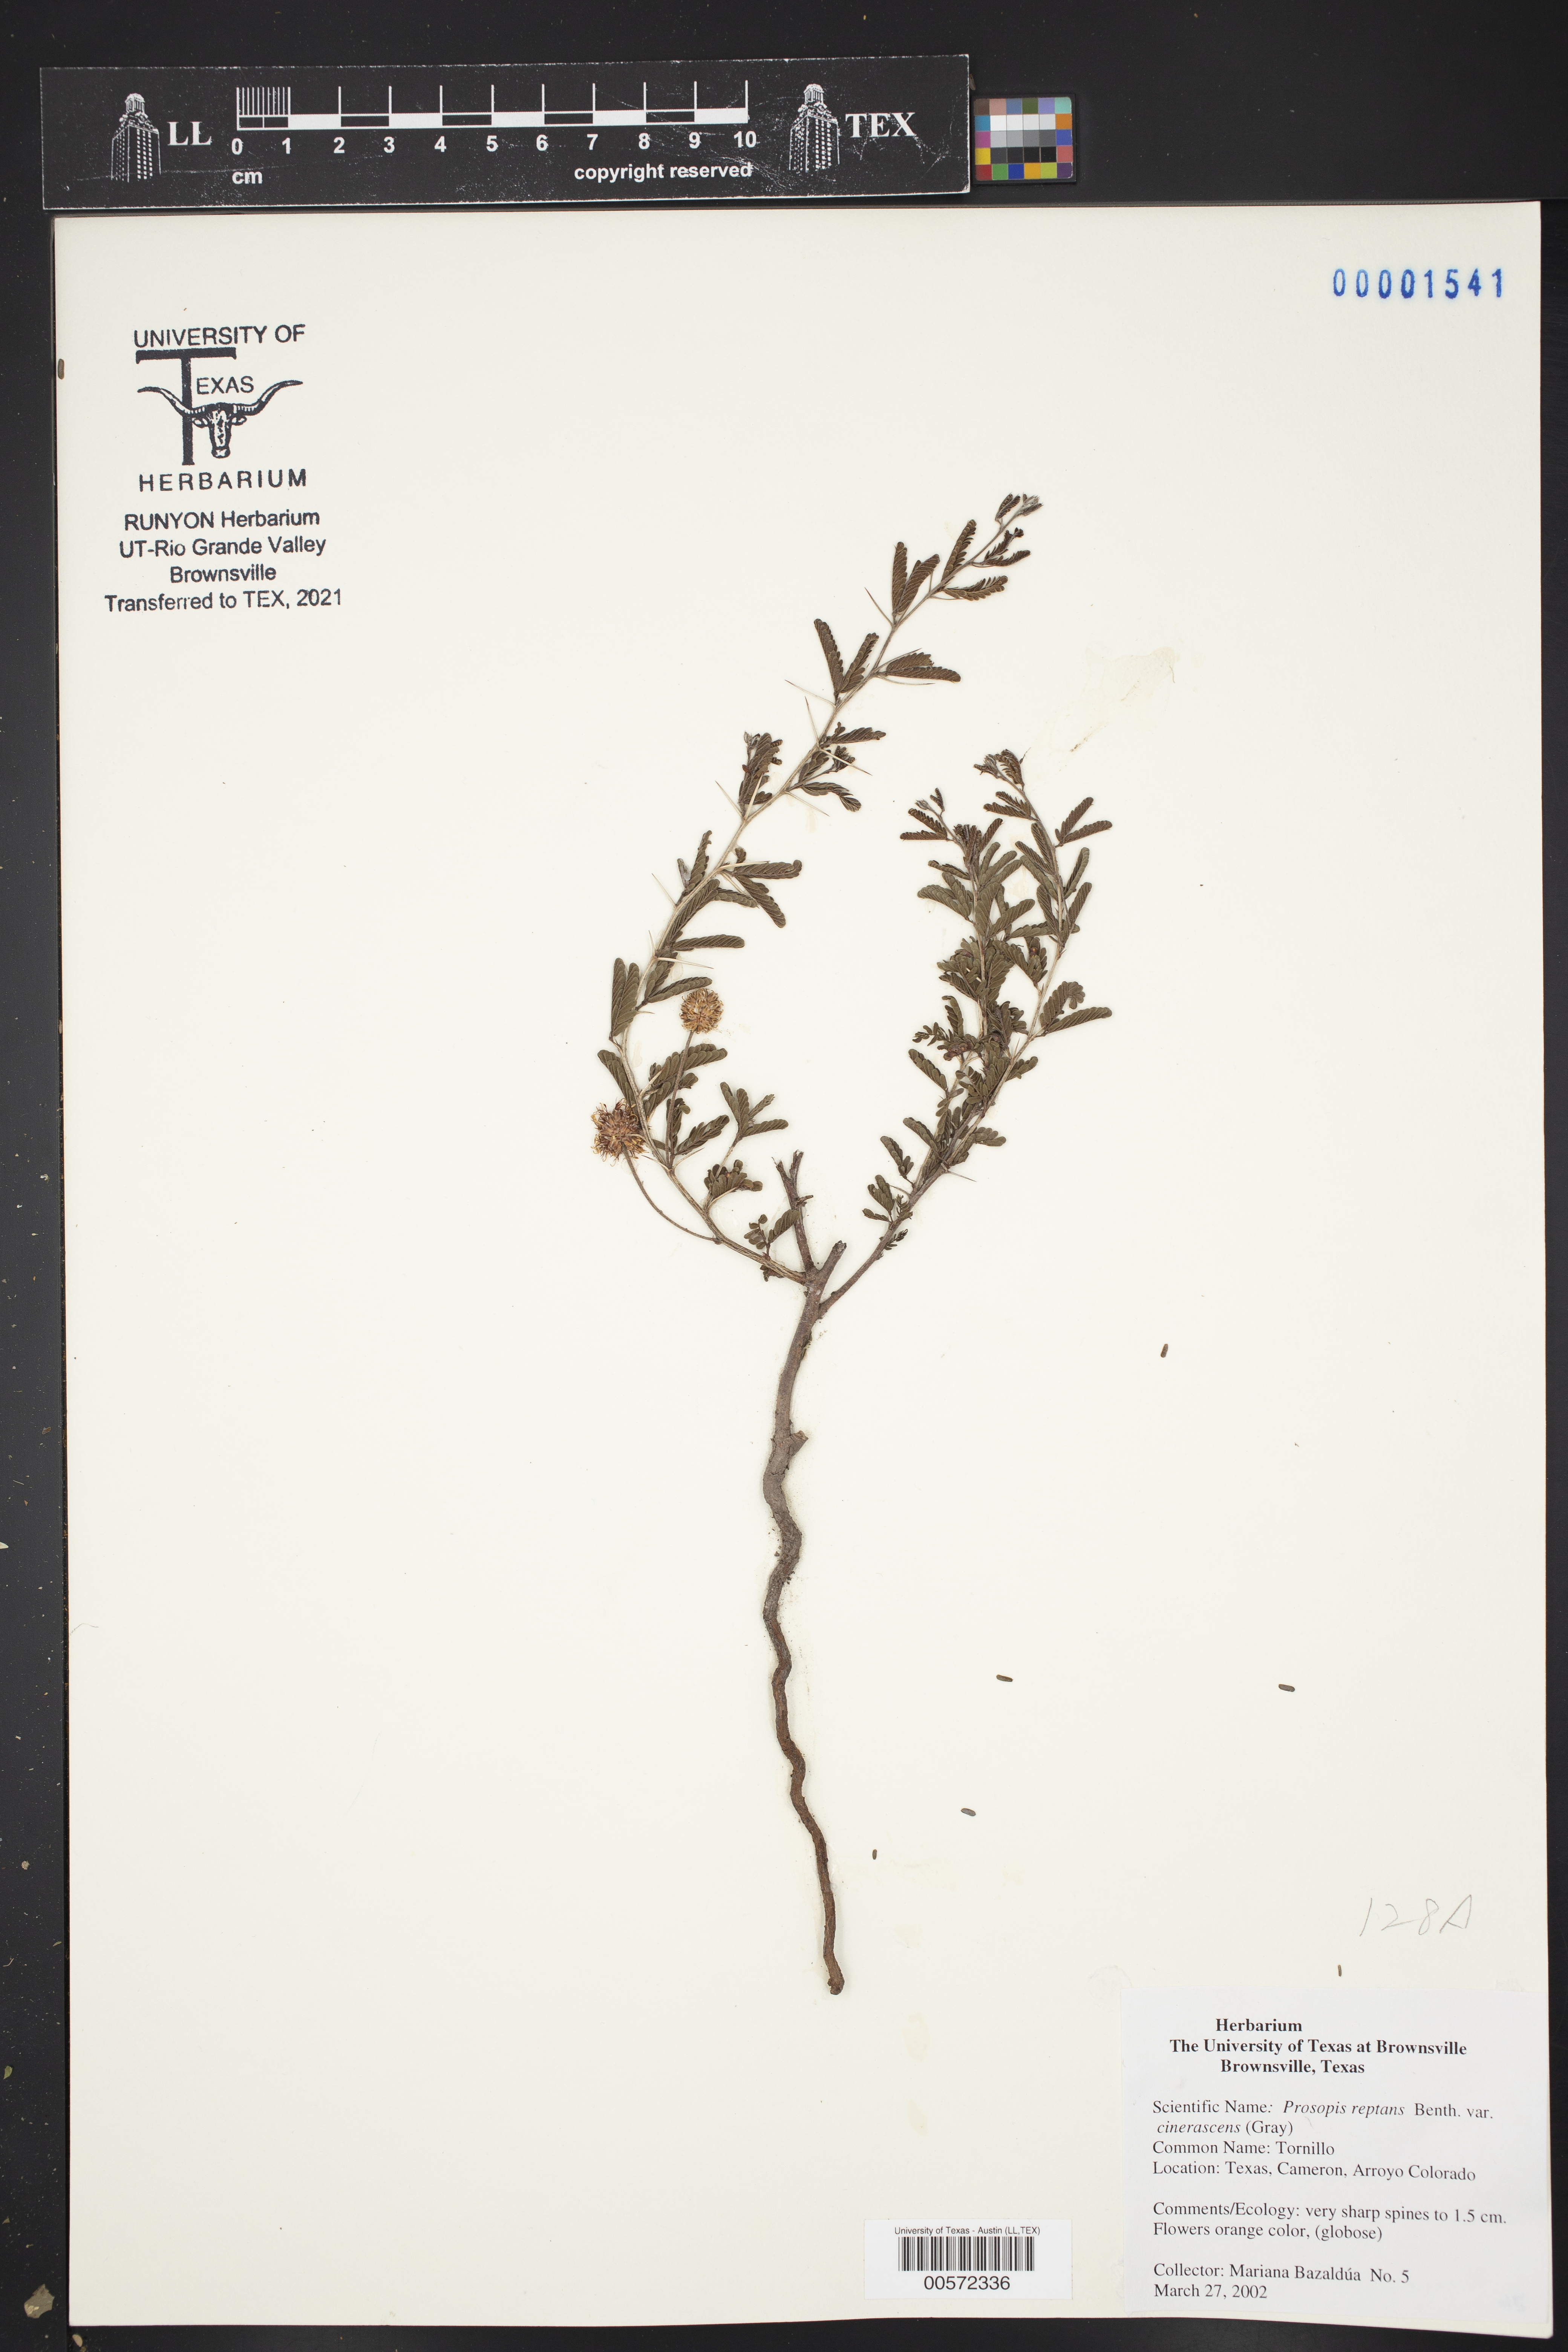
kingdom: Plantae
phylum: Tracheophyta
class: Magnoliopsida
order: Fabales
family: Fabaceae
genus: Prosopis
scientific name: Prosopis cinerascens
